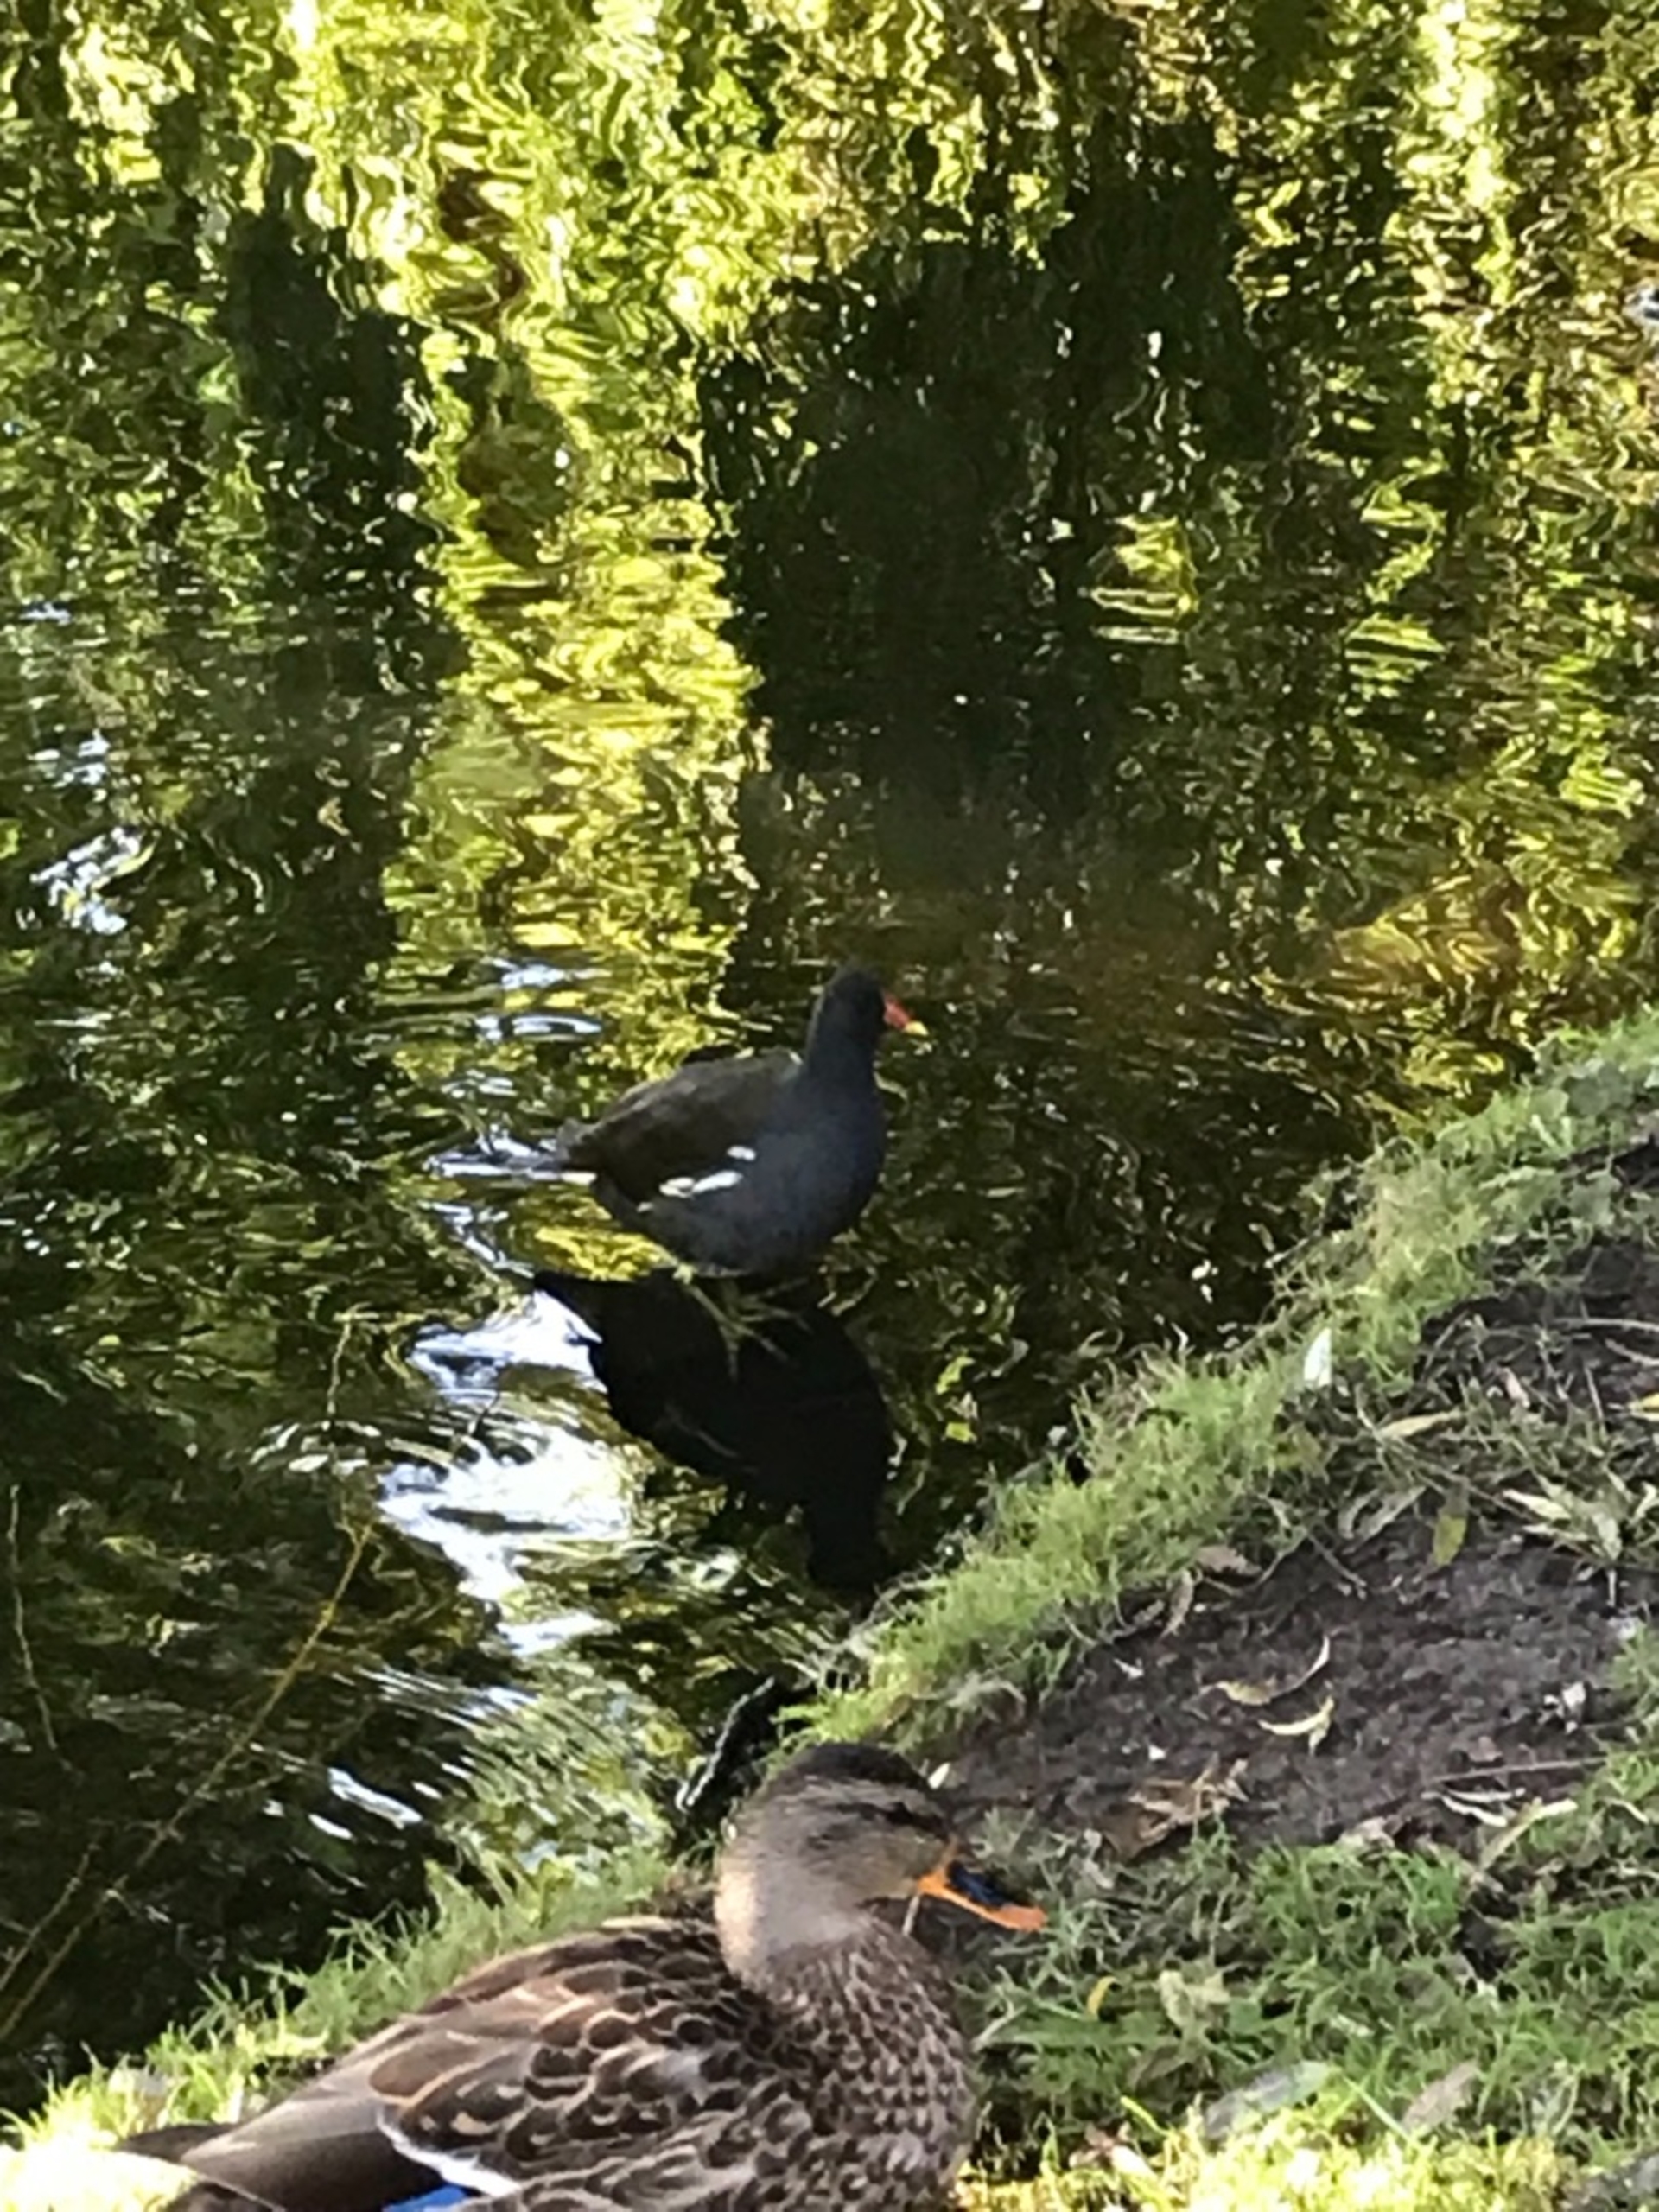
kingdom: Animalia
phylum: Chordata
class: Aves
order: Gruiformes
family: Rallidae
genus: Gallinula
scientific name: Gallinula chloropus
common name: Grønbenet rørhøne
